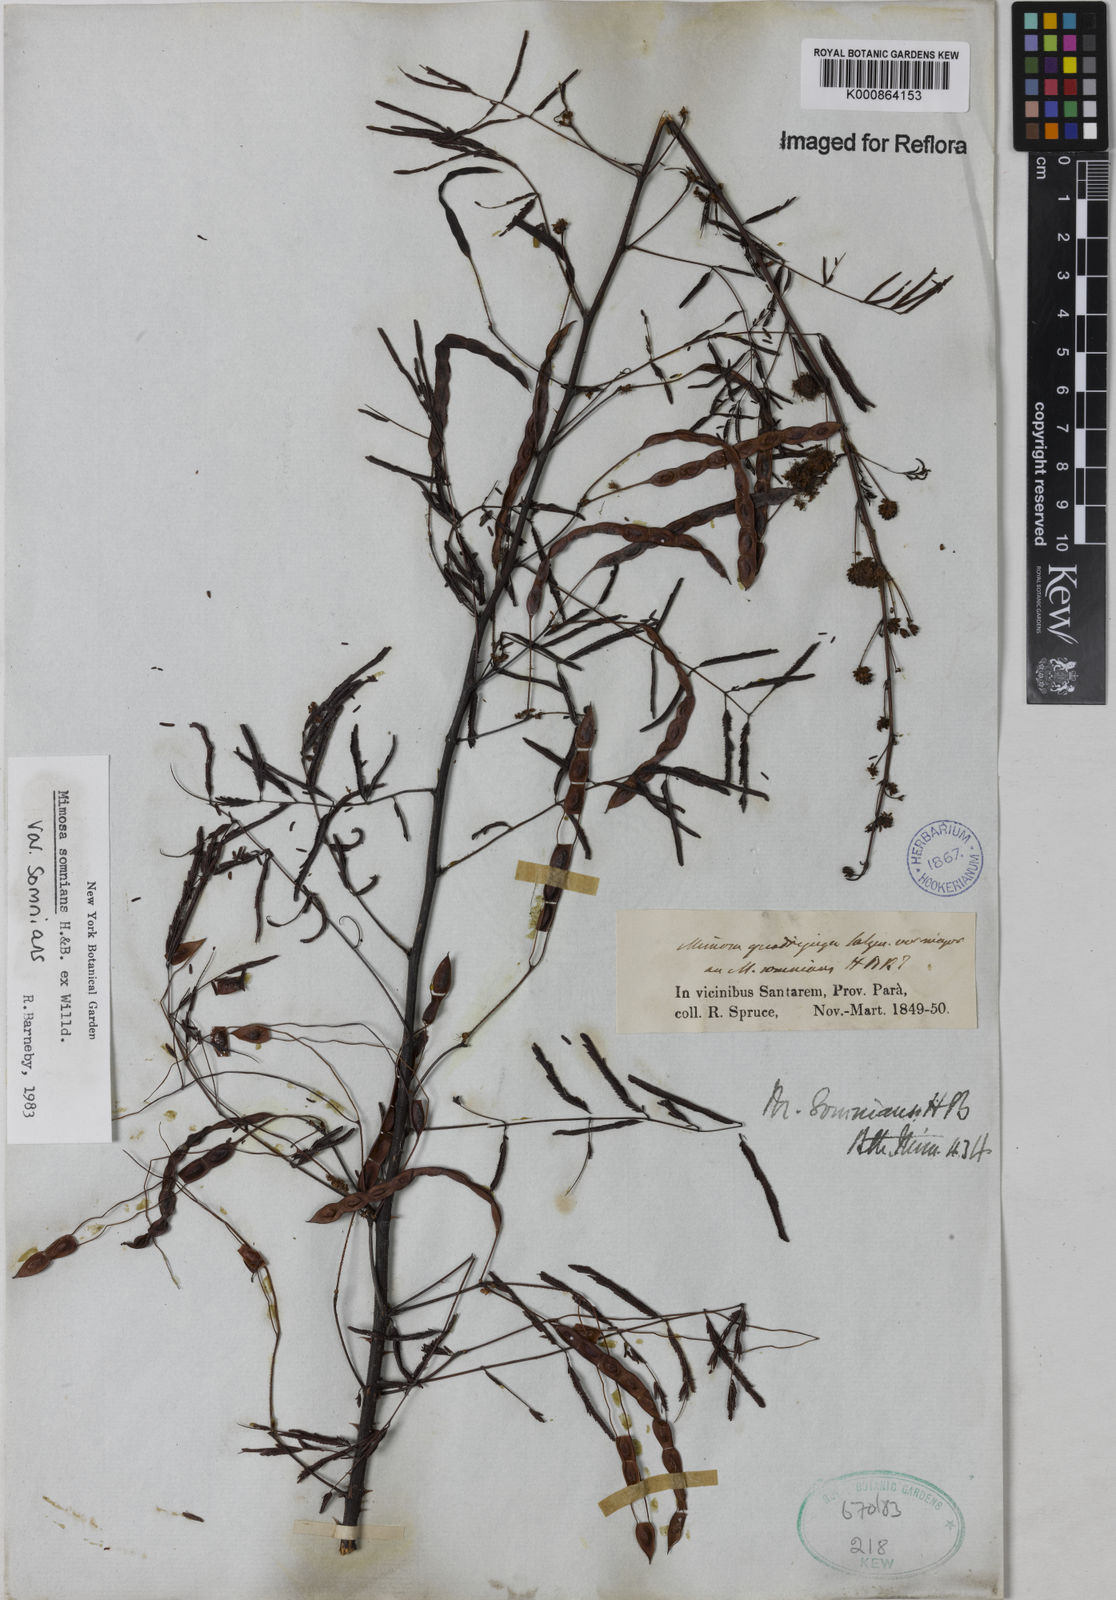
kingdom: Plantae
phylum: Tracheophyta
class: Magnoliopsida
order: Fabales
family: Fabaceae
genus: Mimosa
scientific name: Mimosa somnians
